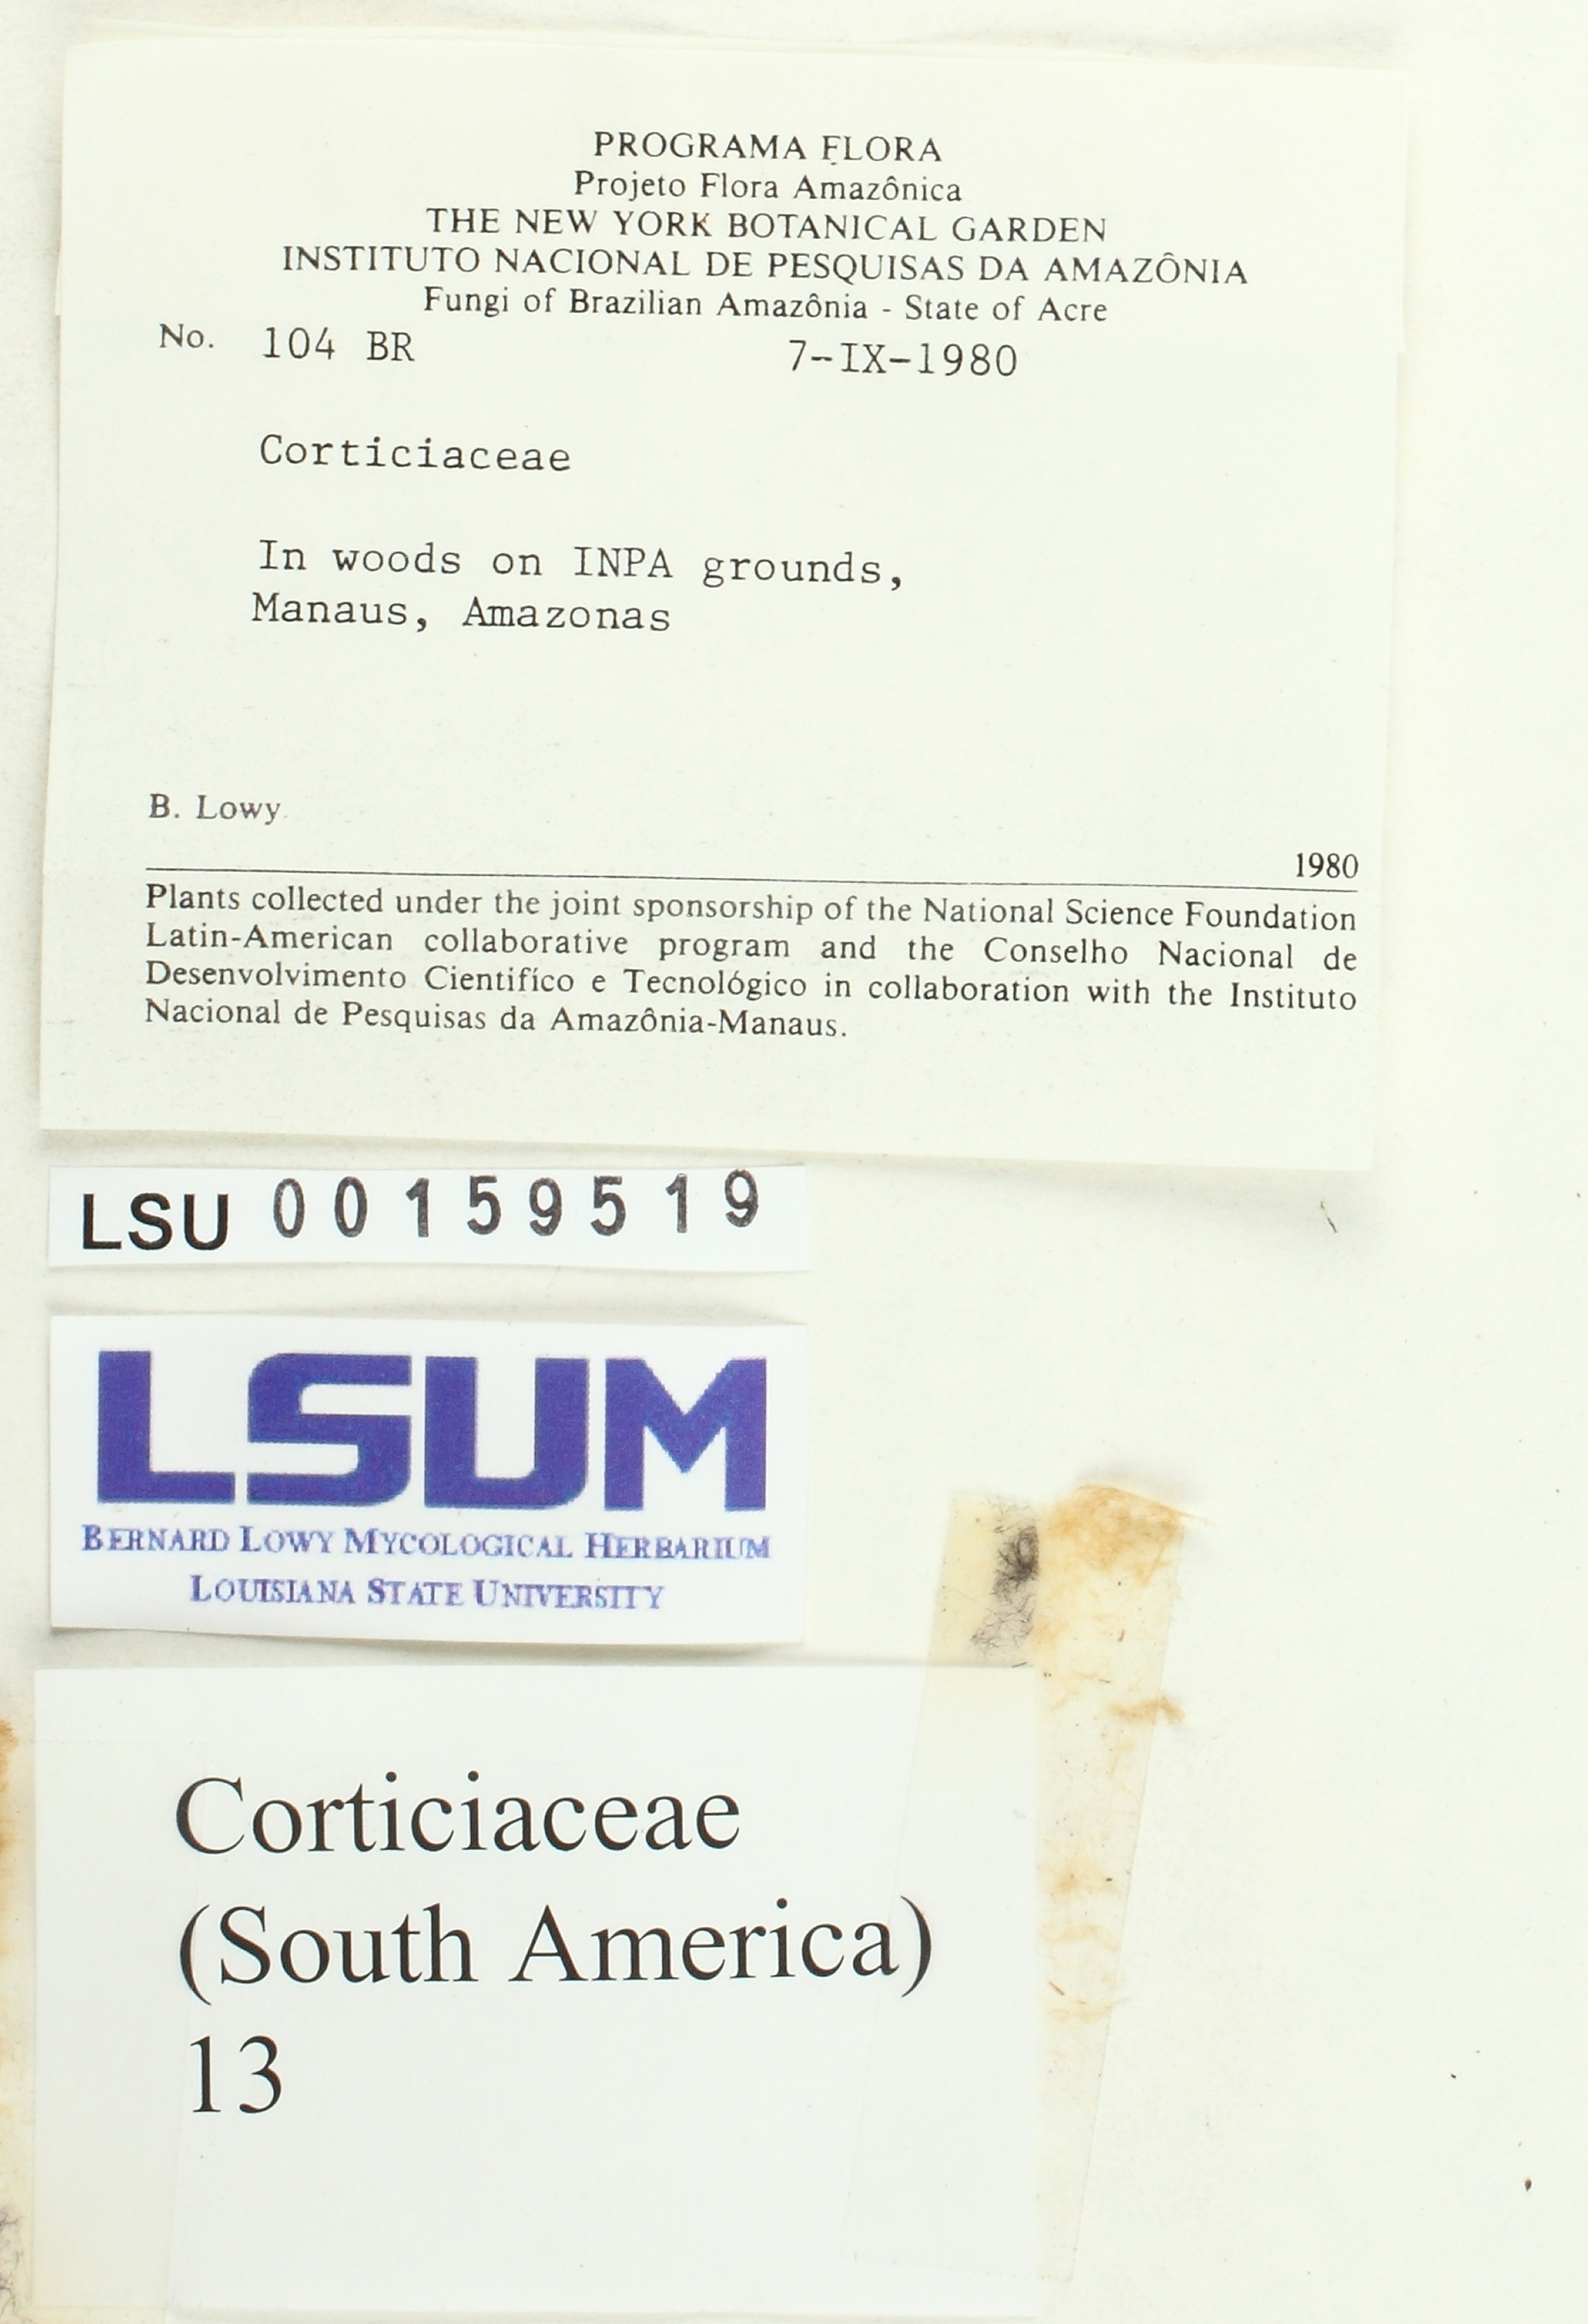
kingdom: Fungi
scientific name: Fungi
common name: Fungi
